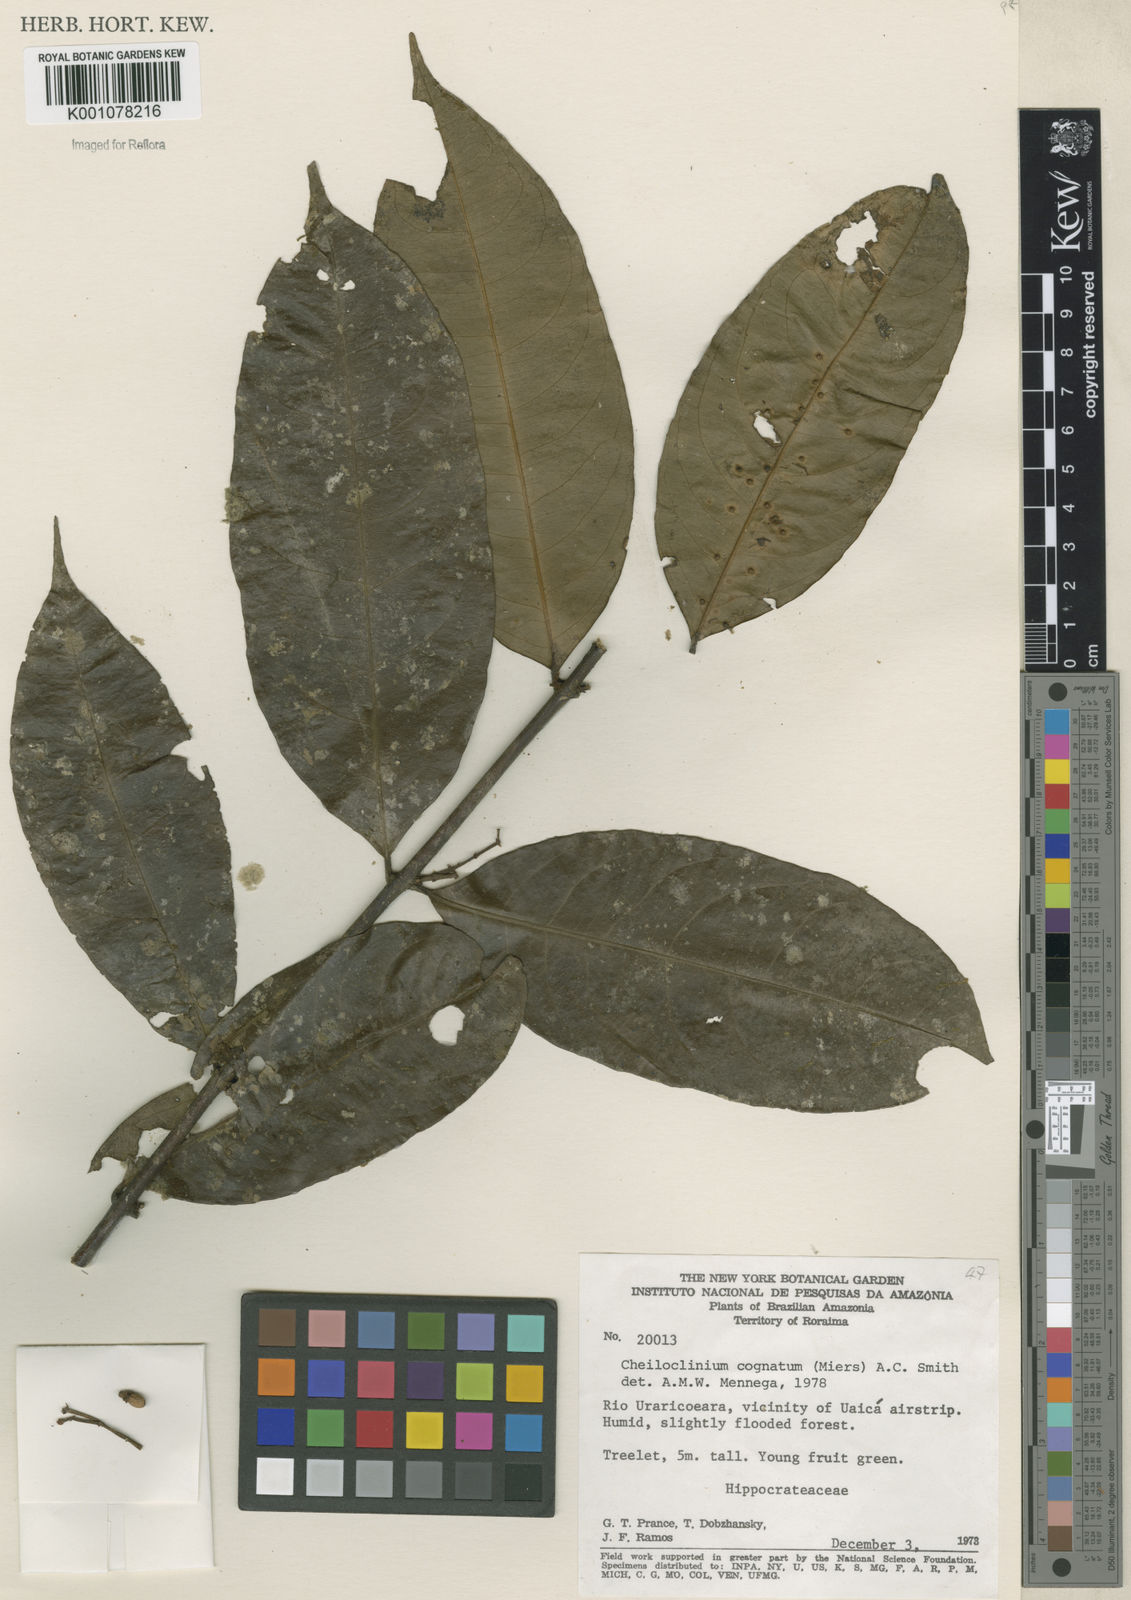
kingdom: Plantae
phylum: Tracheophyta
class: Magnoliopsida
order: Celastrales
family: Celastraceae
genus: Cheiloclinium
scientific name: Cheiloclinium cognatum
